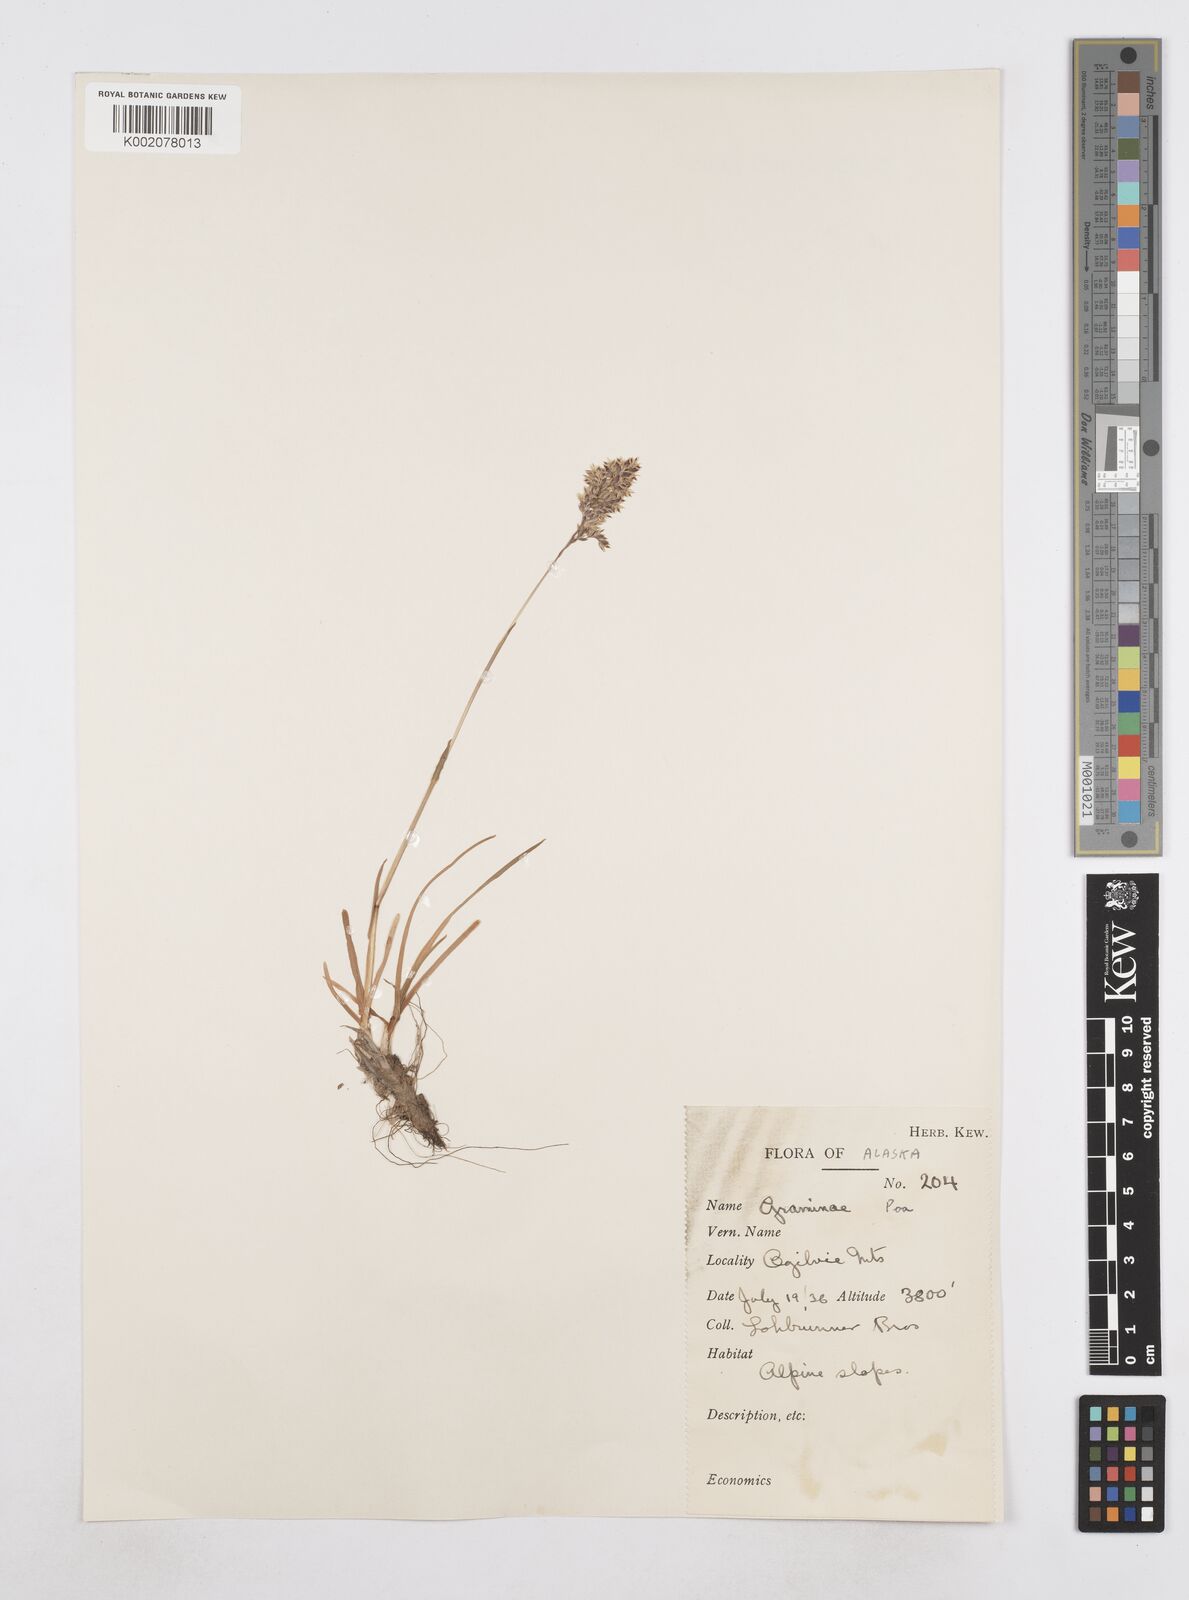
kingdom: Plantae
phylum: Tracheophyta
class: Liliopsida
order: Poales
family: Poaceae
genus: Poa
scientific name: Poa
